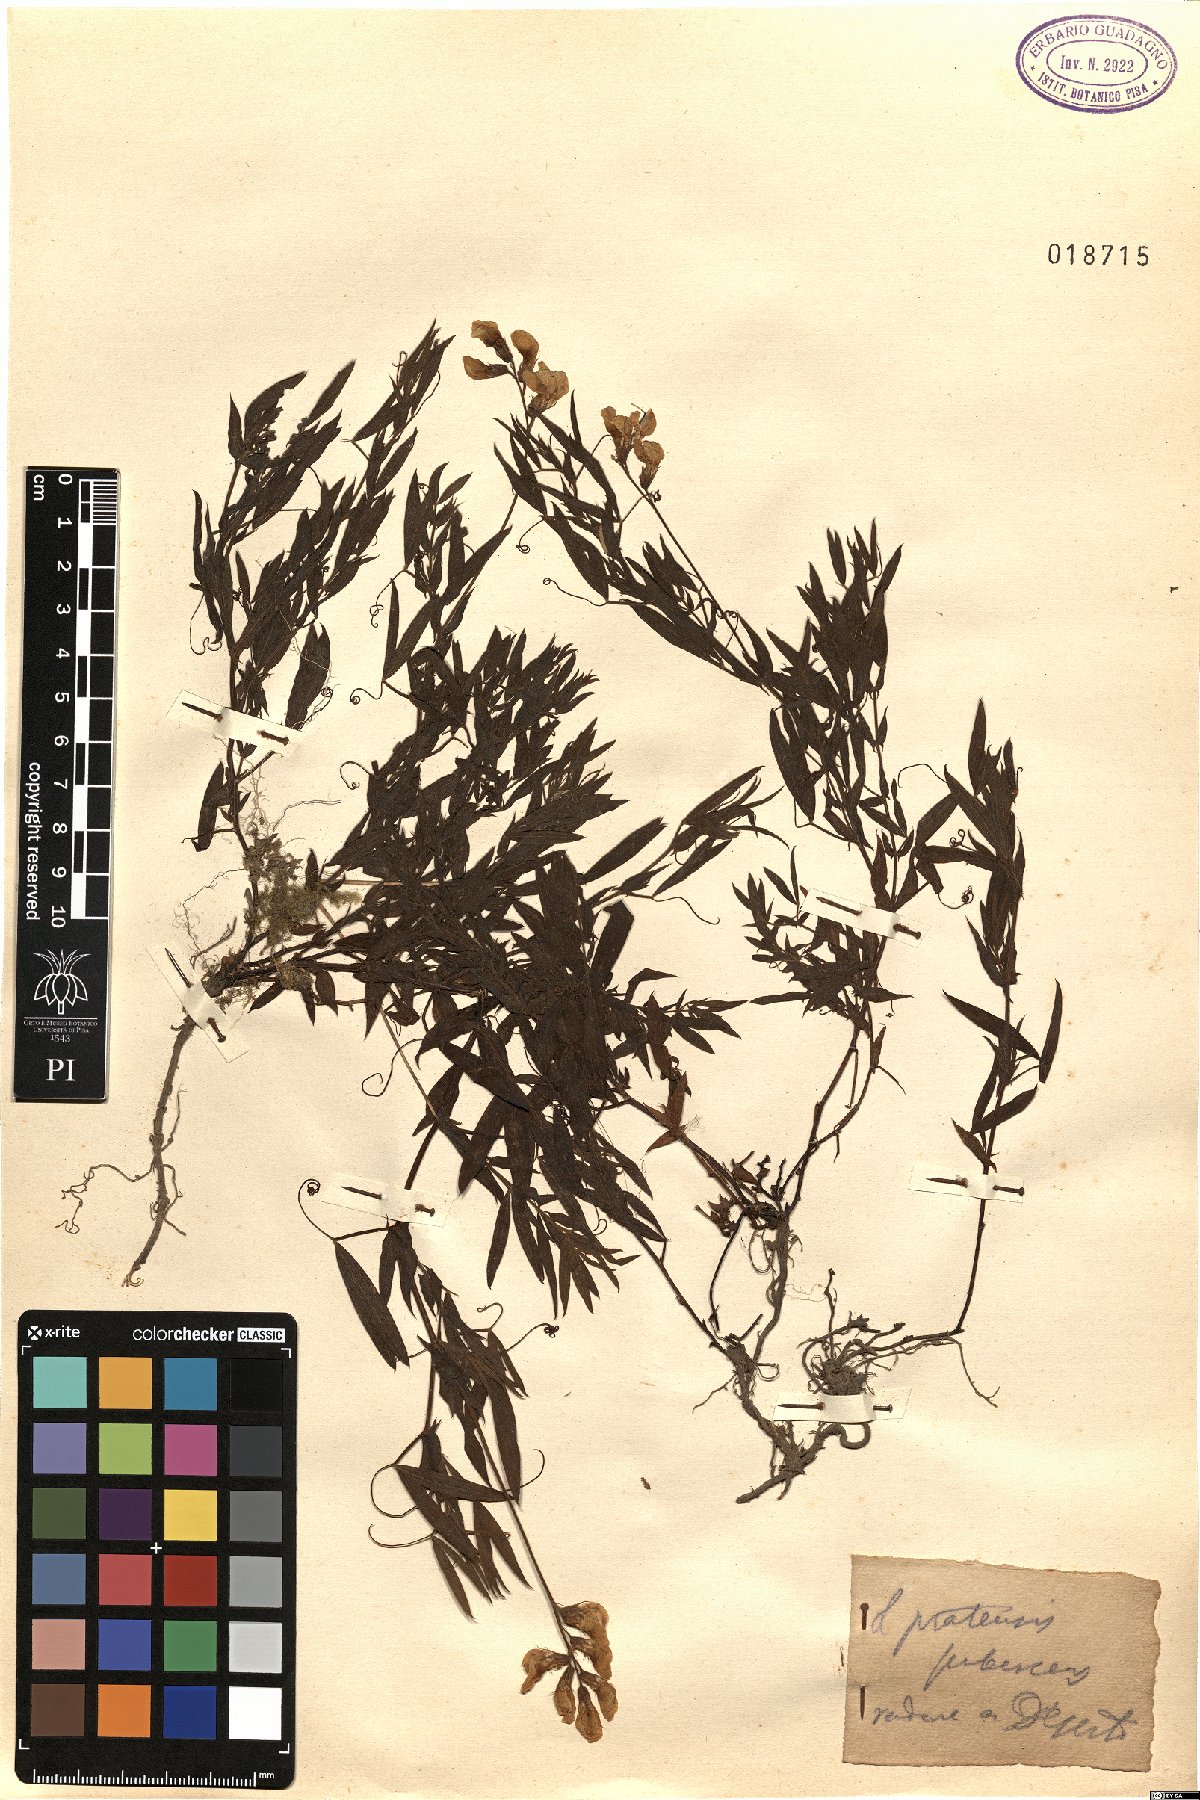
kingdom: Plantae
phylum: Tracheophyta
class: Magnoliopsida
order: Fabales
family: Fabaceae
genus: Lathyrus
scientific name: Lathyrus pratensis
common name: Meadow vetchling
